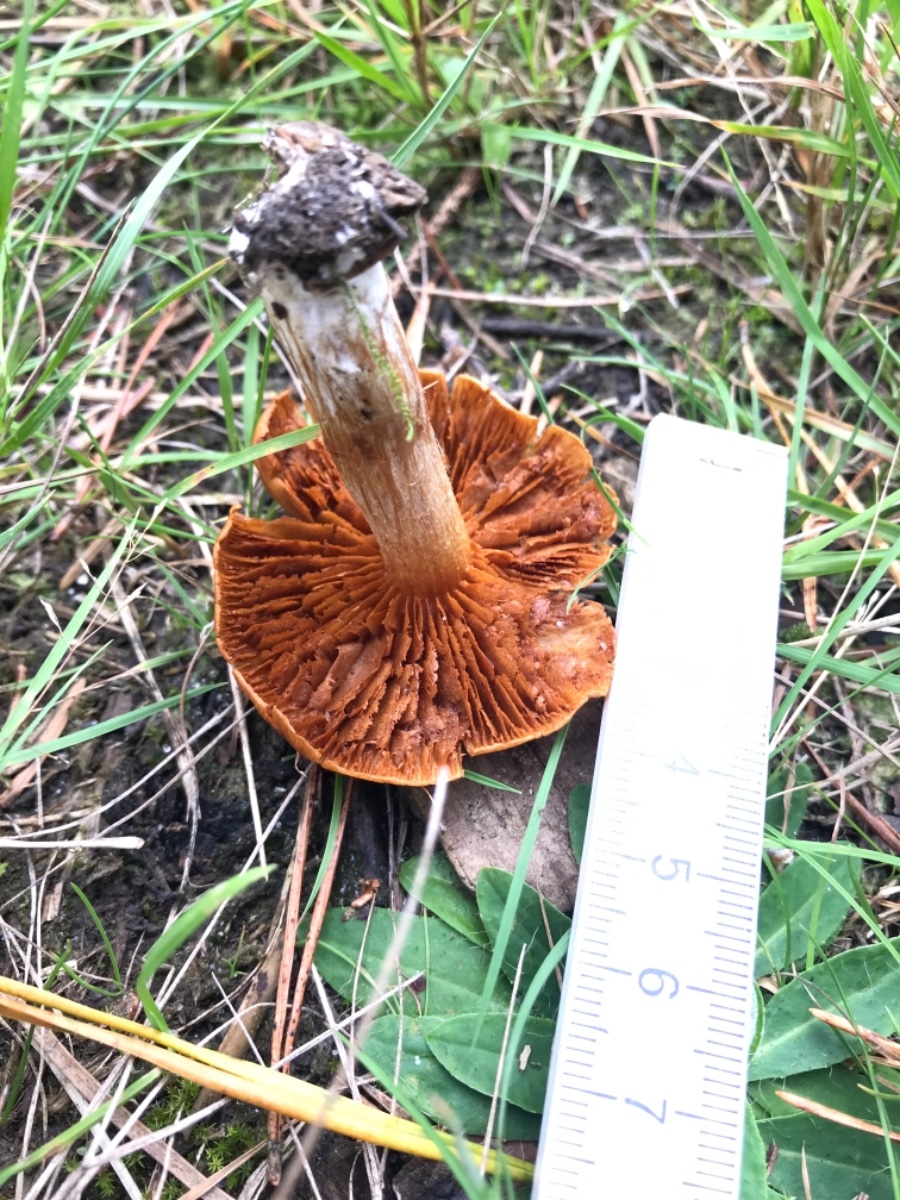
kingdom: Fungi
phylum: Basidiomycota
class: Agaricomycetes
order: Agaricales
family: Cortinariaceae
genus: Cortinarius
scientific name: Cortinarius
